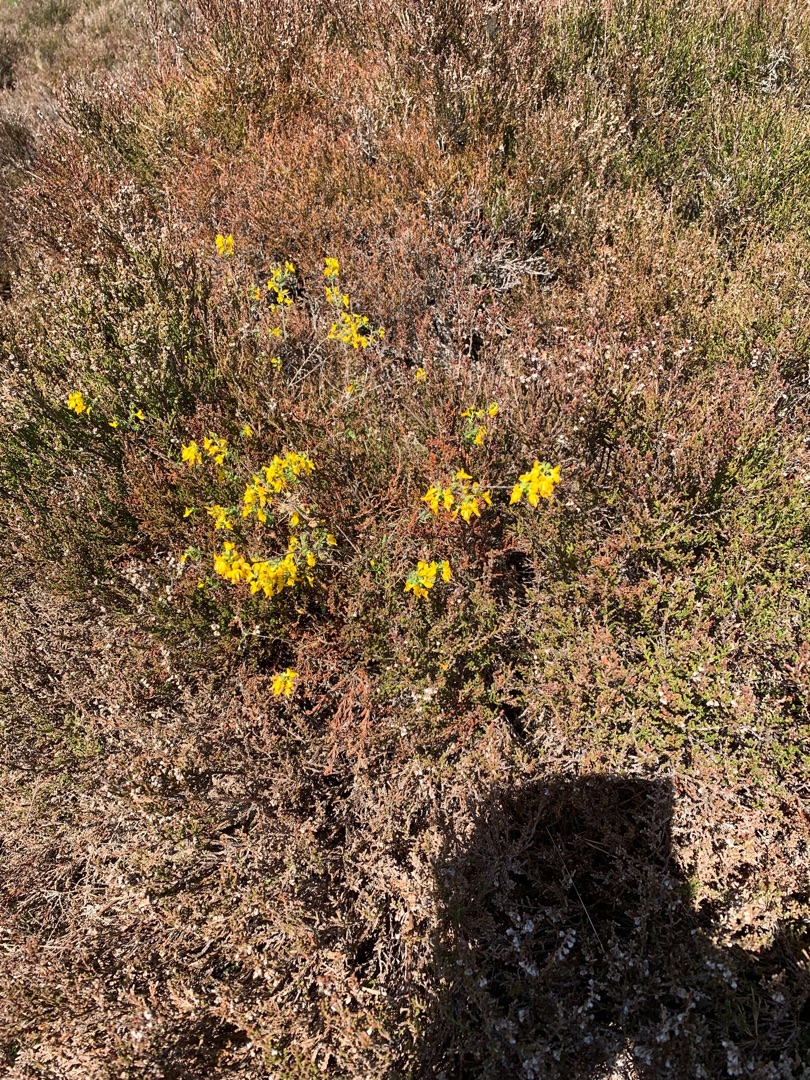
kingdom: Plantae
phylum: Tracheophyta
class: Magnoliopsida
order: Fabales
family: Fabaceae
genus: Genista
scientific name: Genista anglica
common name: Engelsk visse
